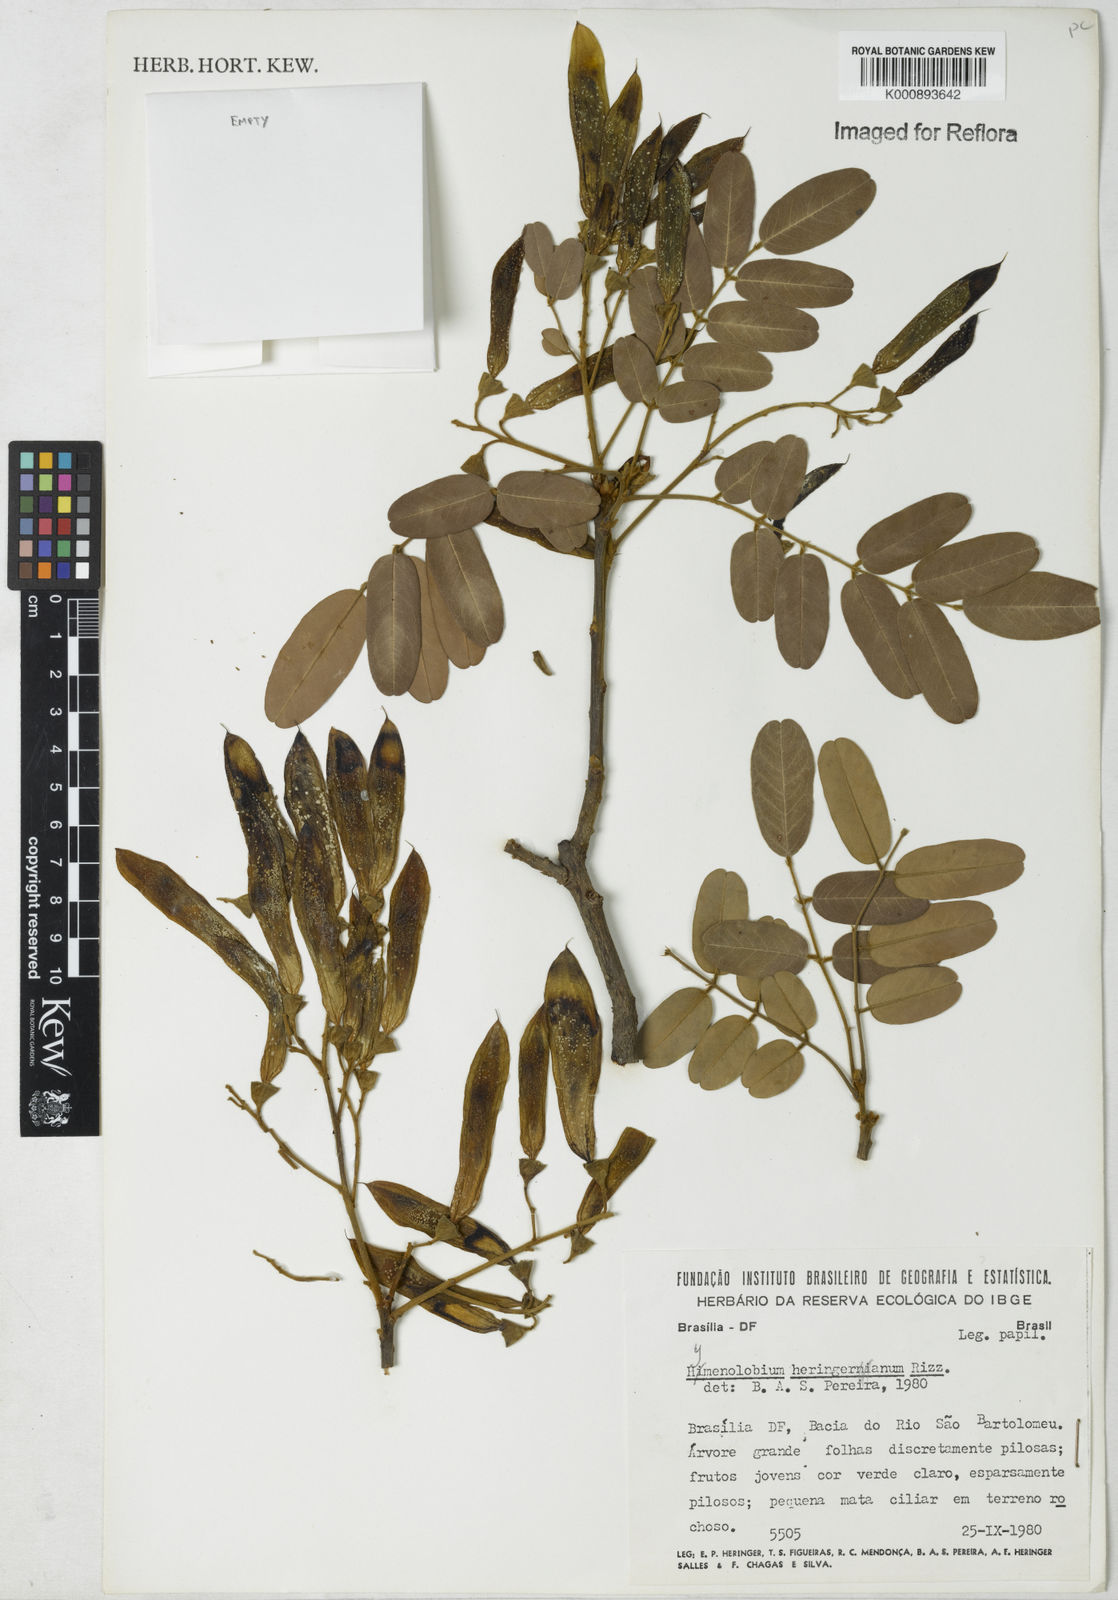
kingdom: Plantae
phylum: Tracheophyta
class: Magnoliopsida
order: Fabales
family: Fabaceae
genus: Hymenolobium
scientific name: Hymenolobium
